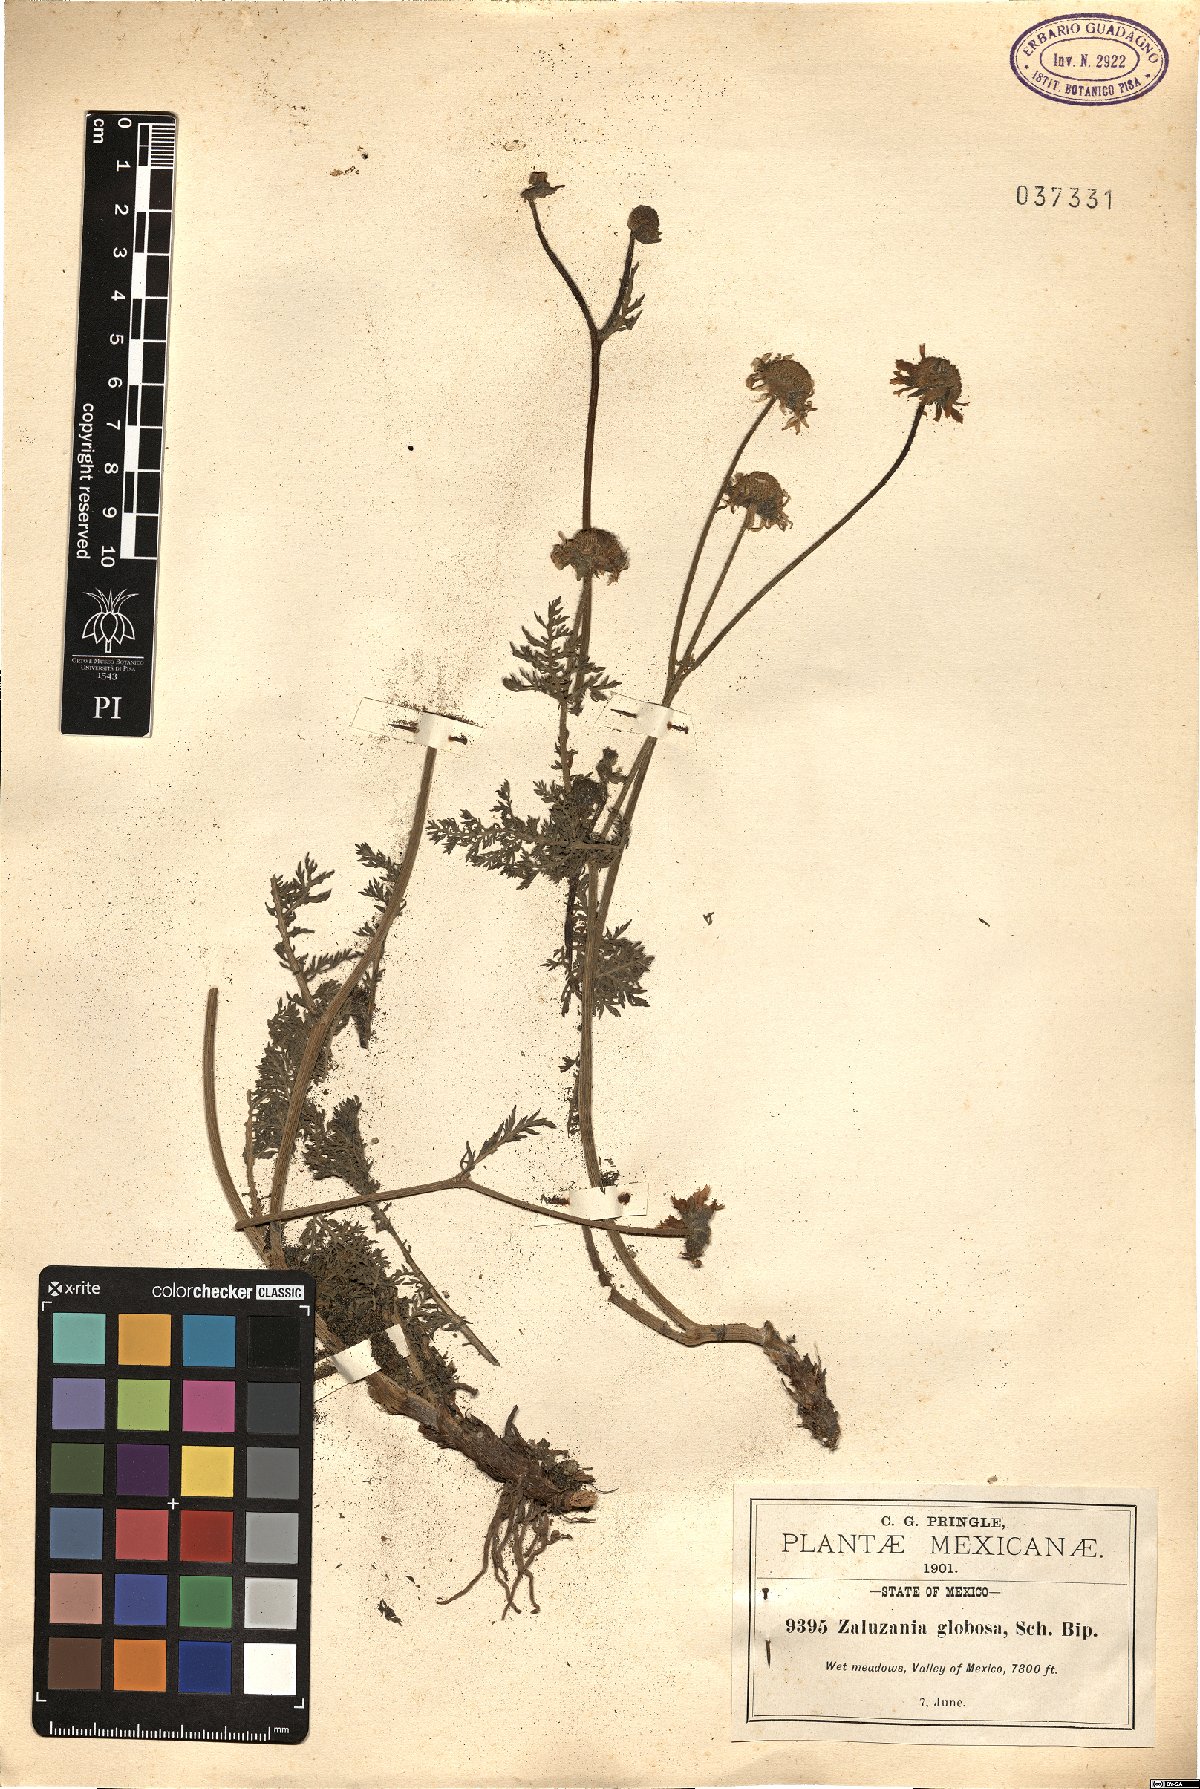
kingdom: Plantae
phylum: Tracheophyta
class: Magnoliopsida
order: Asterales
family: Asteraceae
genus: Hybridella
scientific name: Hybridella globosa
